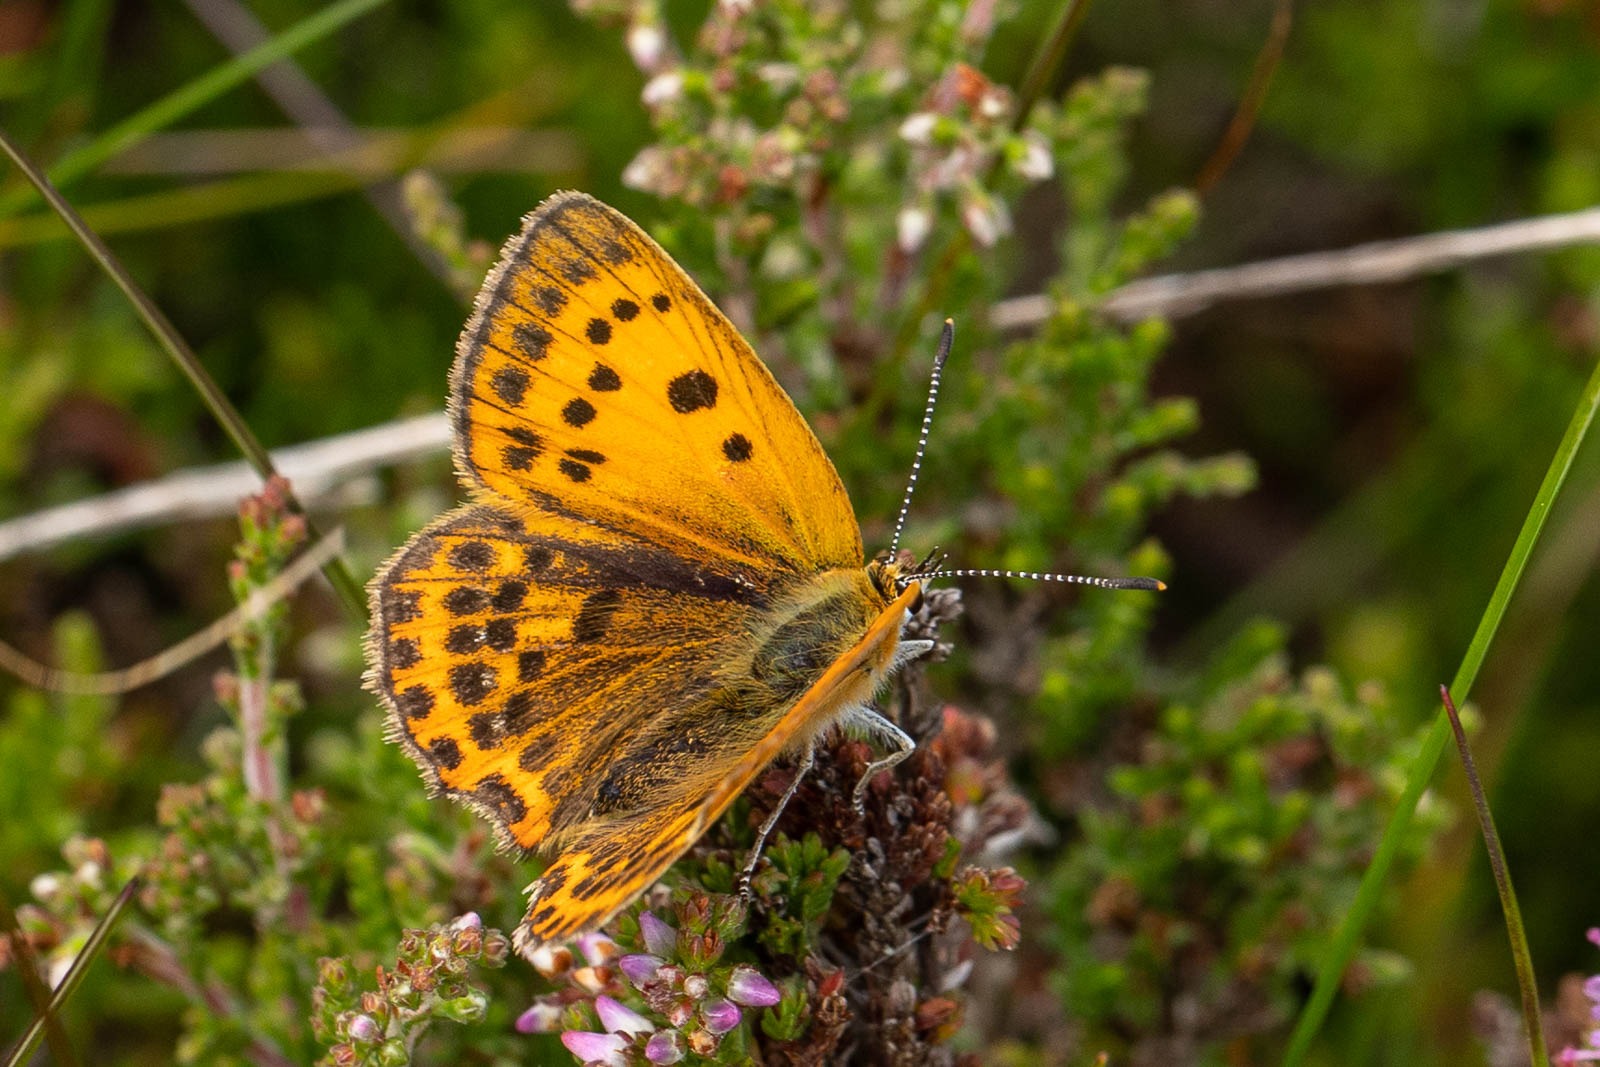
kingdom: Animalia
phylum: Arthropoda
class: Insecta
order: Lepidoptera
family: Lycaenidae
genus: Lycaena
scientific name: Lycaena virgaureae
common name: Dukatsommerfugl
